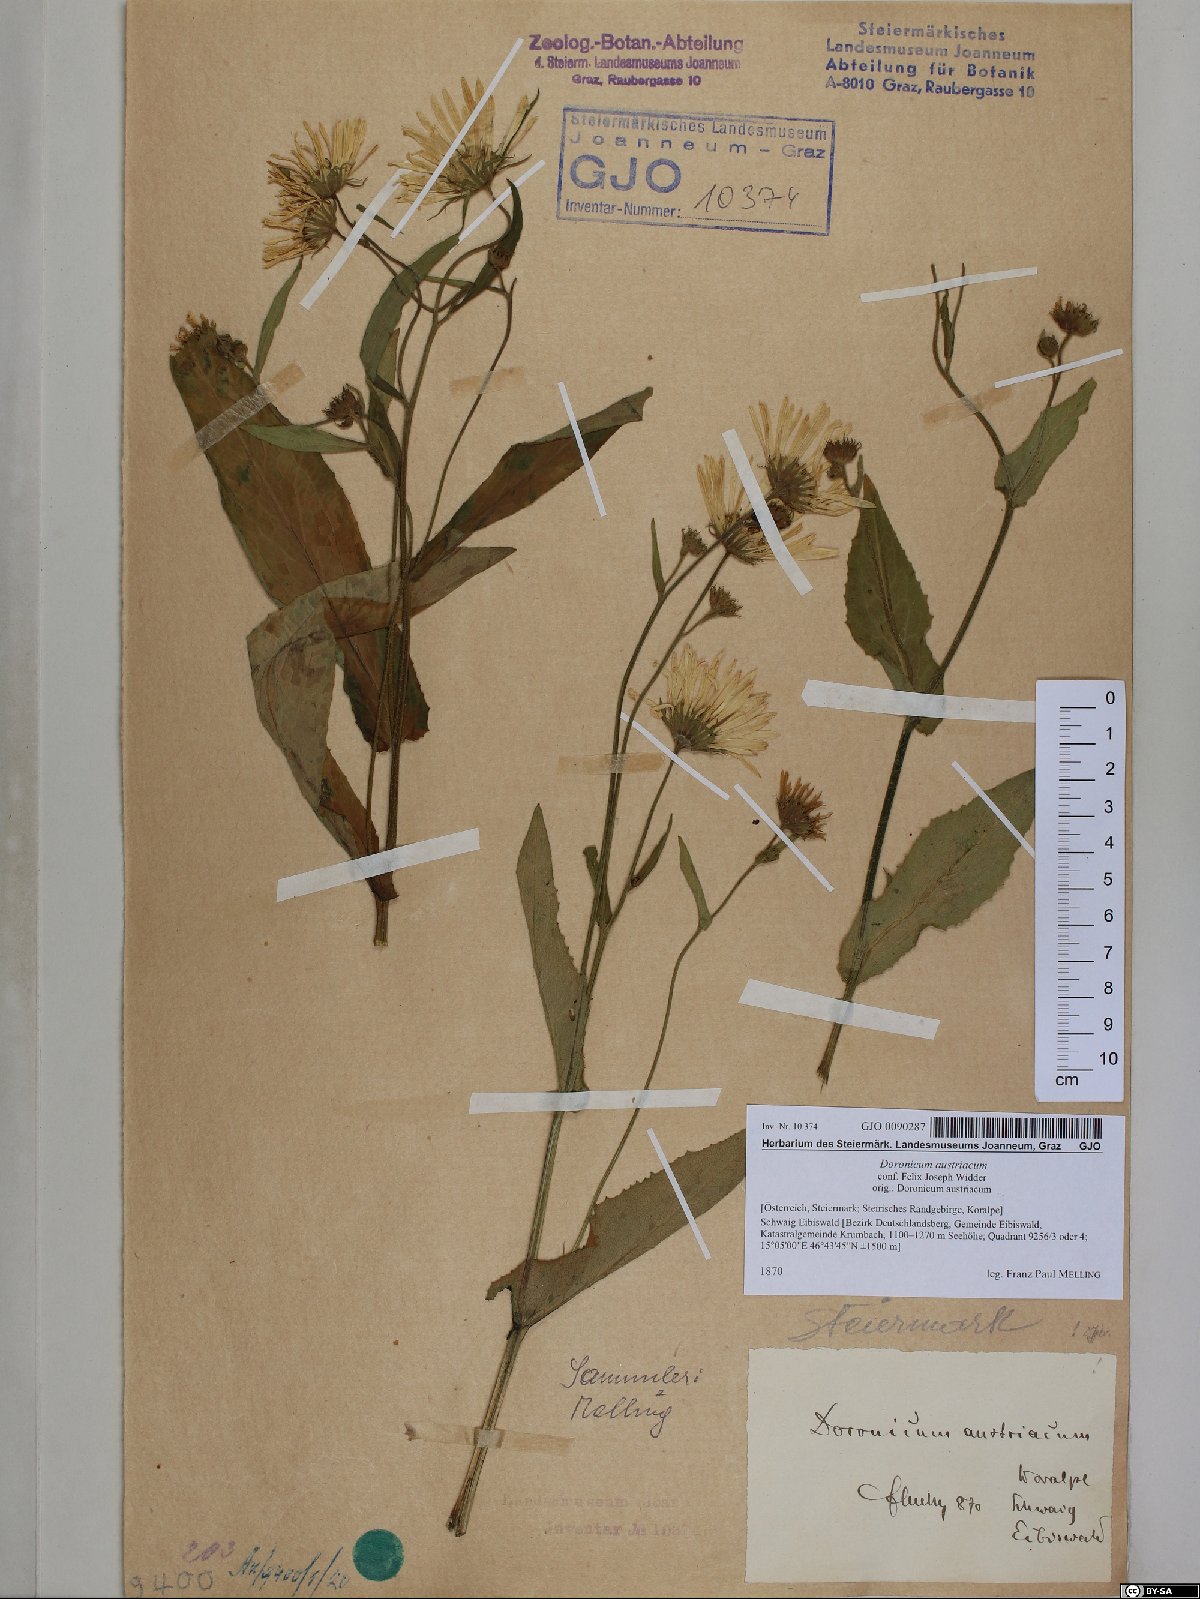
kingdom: Plantae
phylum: Tracheophyta
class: Magnoliopsida
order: Asterales
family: Asteraceae
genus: Doronicum
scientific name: Doronicum austriacum
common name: Austrian leopard's-bane
